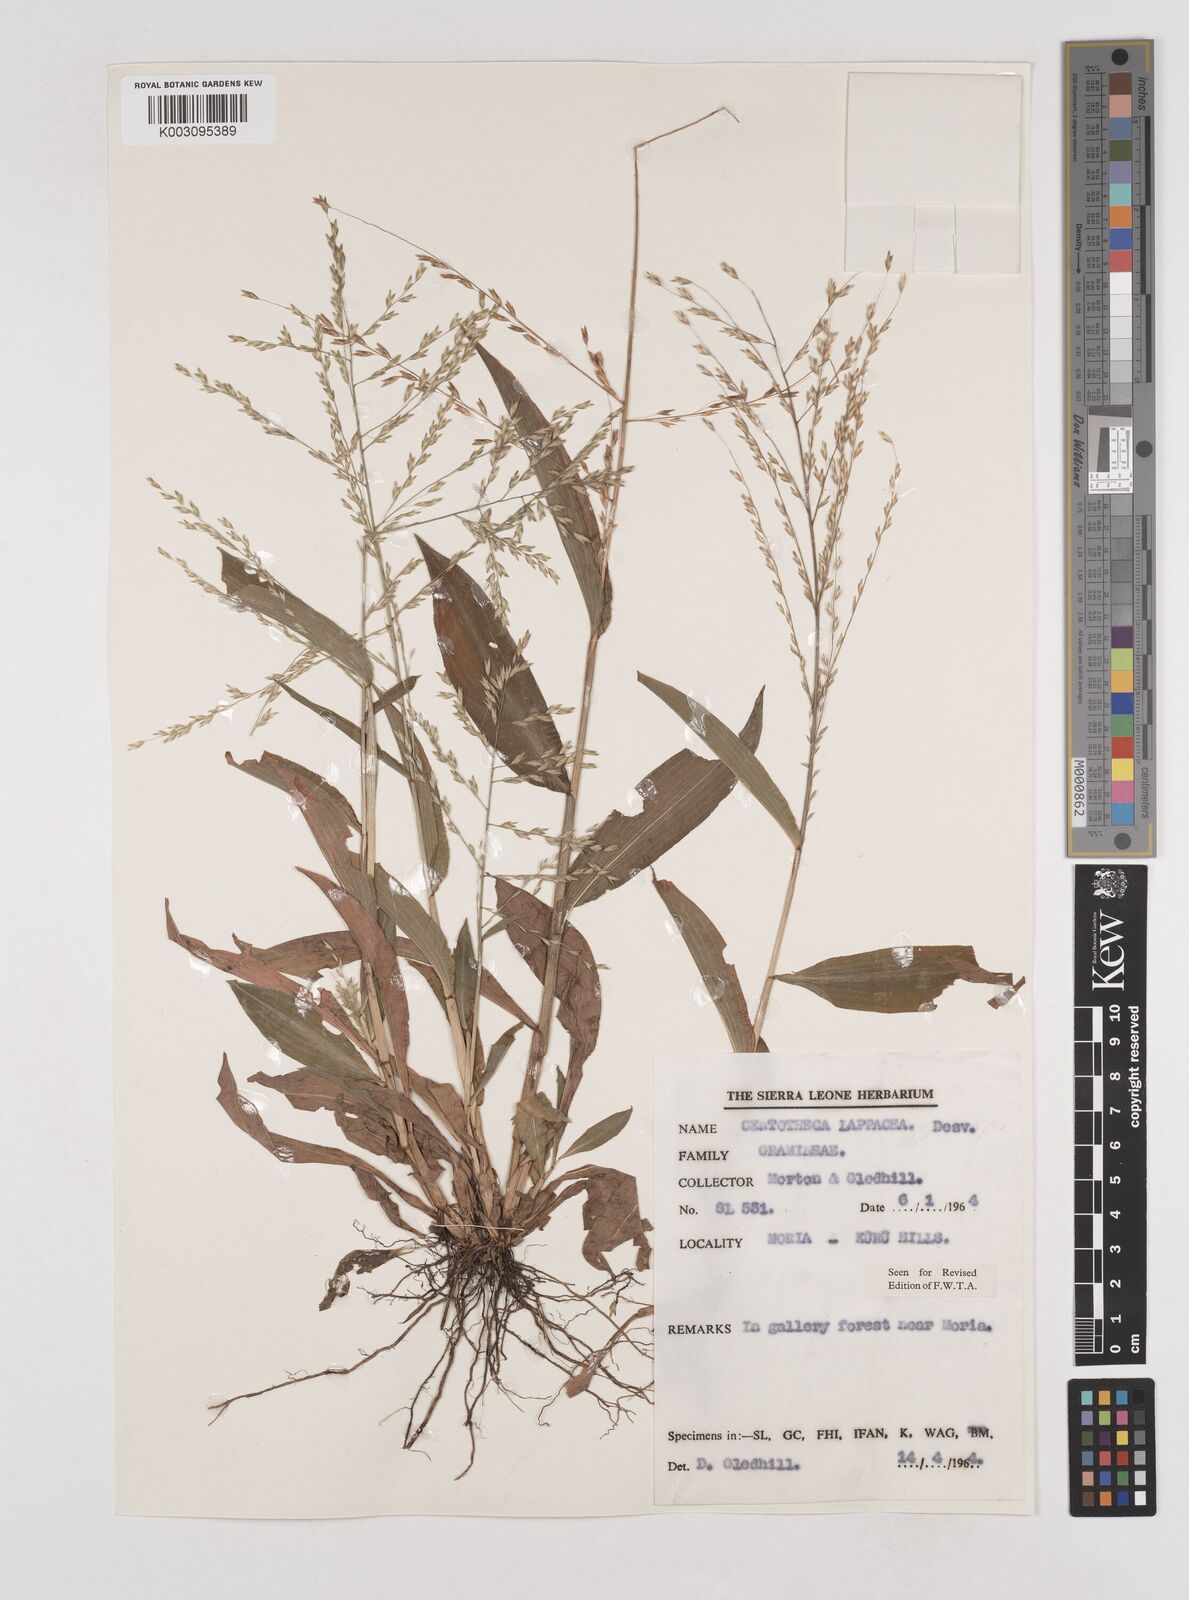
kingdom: Plantae
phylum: Tracheophyta
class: Liliopsida
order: Poales
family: Poaceae
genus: Centotheca
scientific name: Centotheca lappacea
